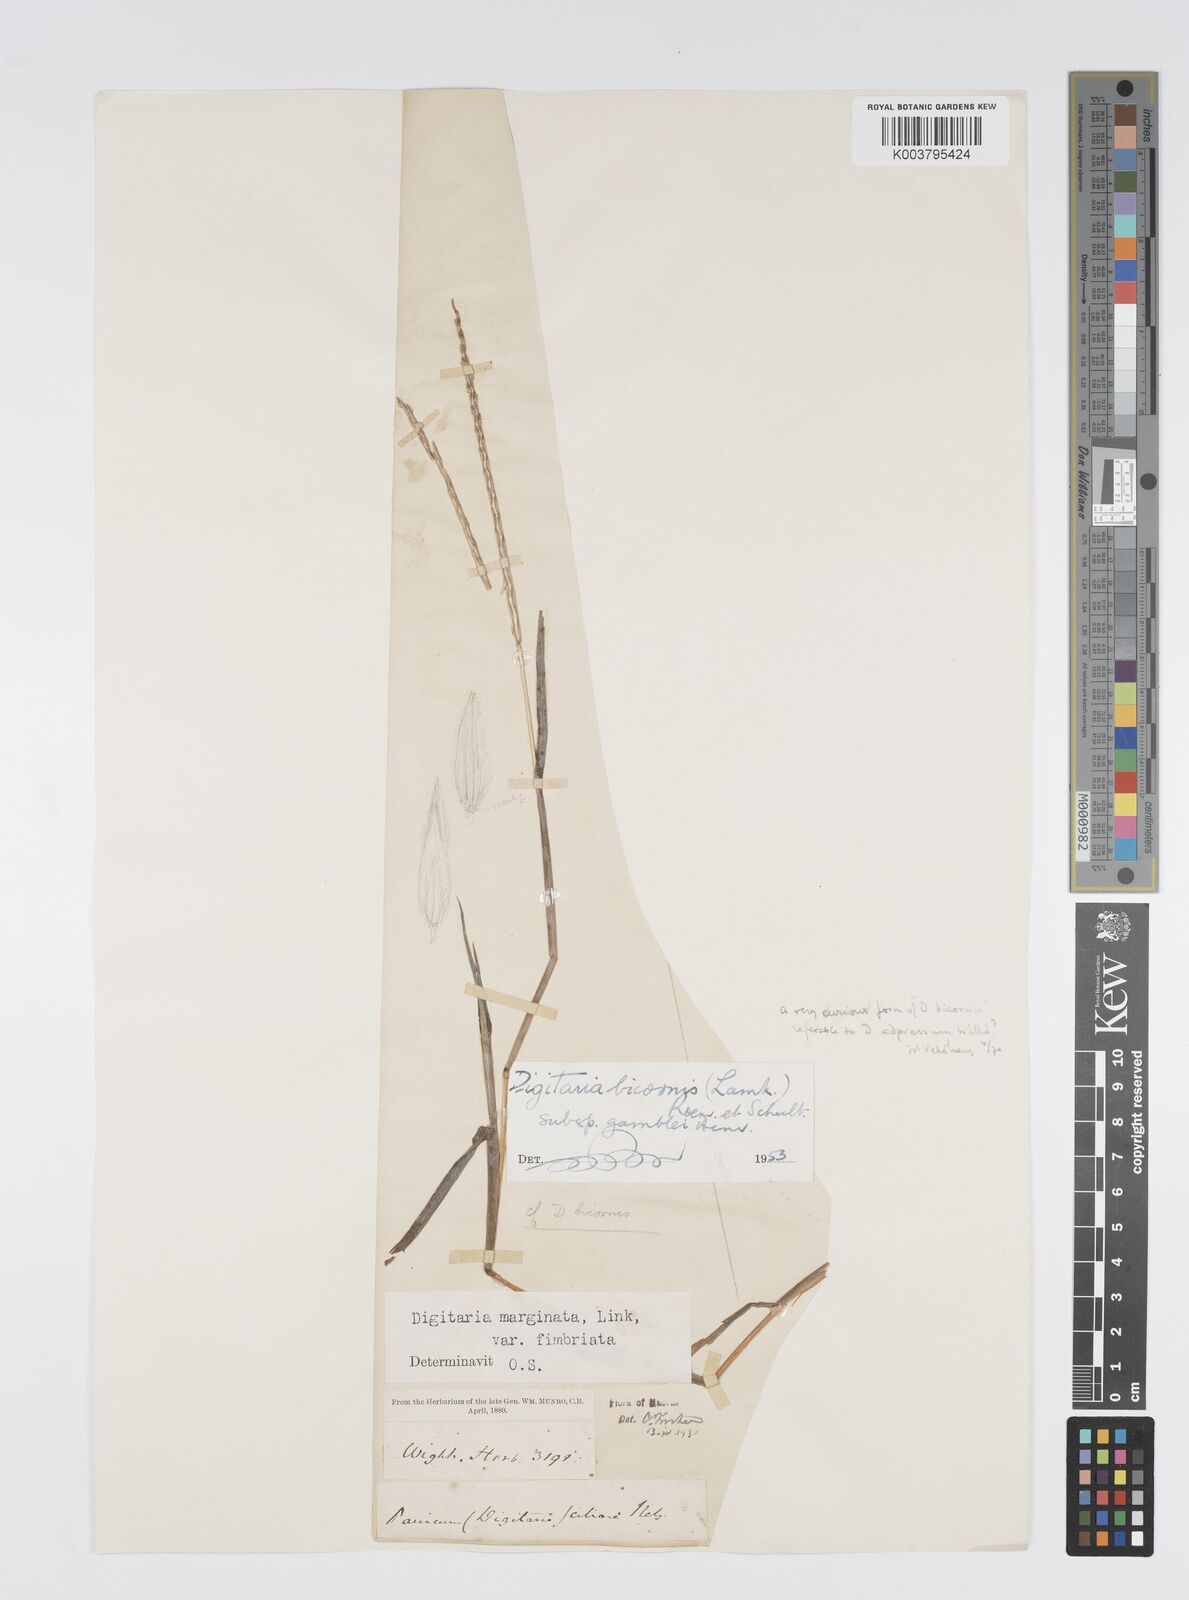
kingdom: Plantae
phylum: Tracheophyta
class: Liliopsida
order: Poales
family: Poaceae
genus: Digitaria
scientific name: Digitaria bicornis
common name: Asian crabgrass
